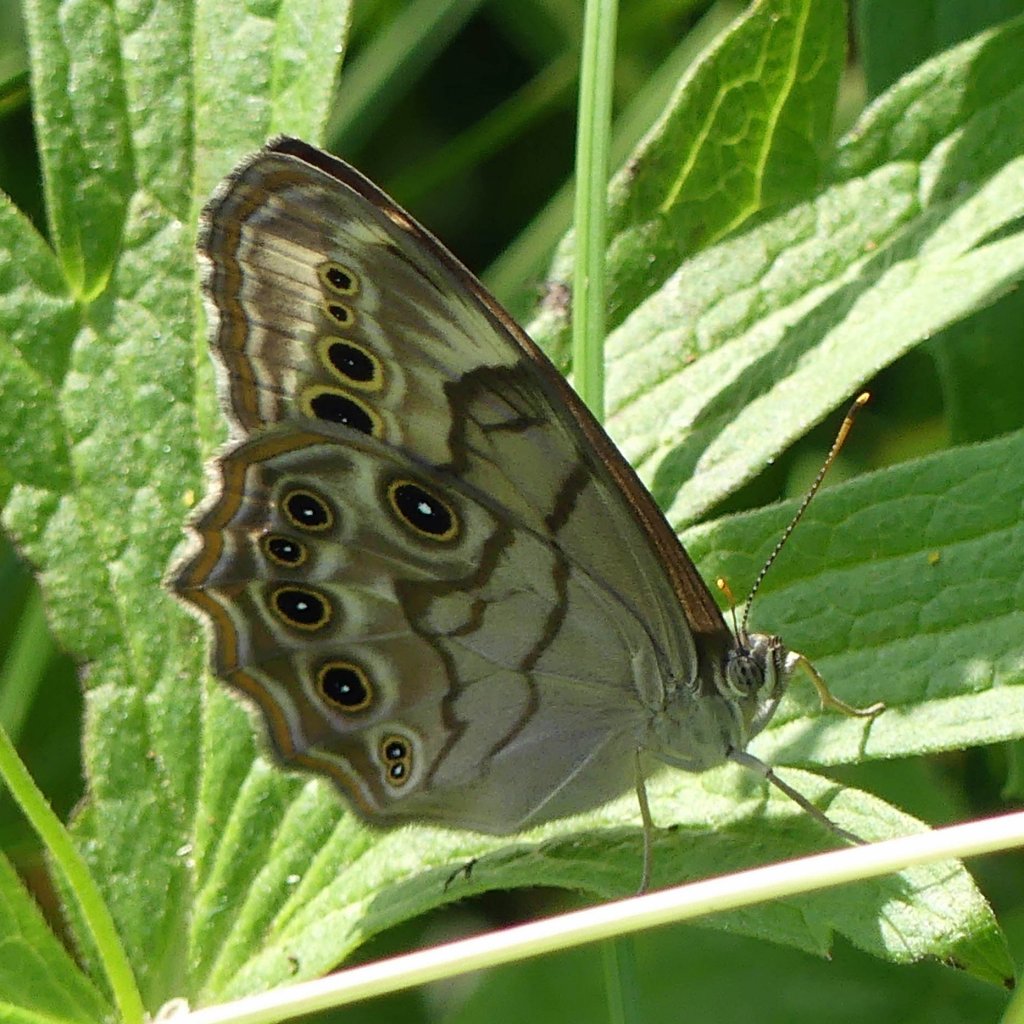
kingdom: Animalia
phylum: Arthropoda
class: Insecta
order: Lepidoptera
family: Nymphalidae
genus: Lethe
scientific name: Lethe anthedon
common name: Northern Pearly-Eye
